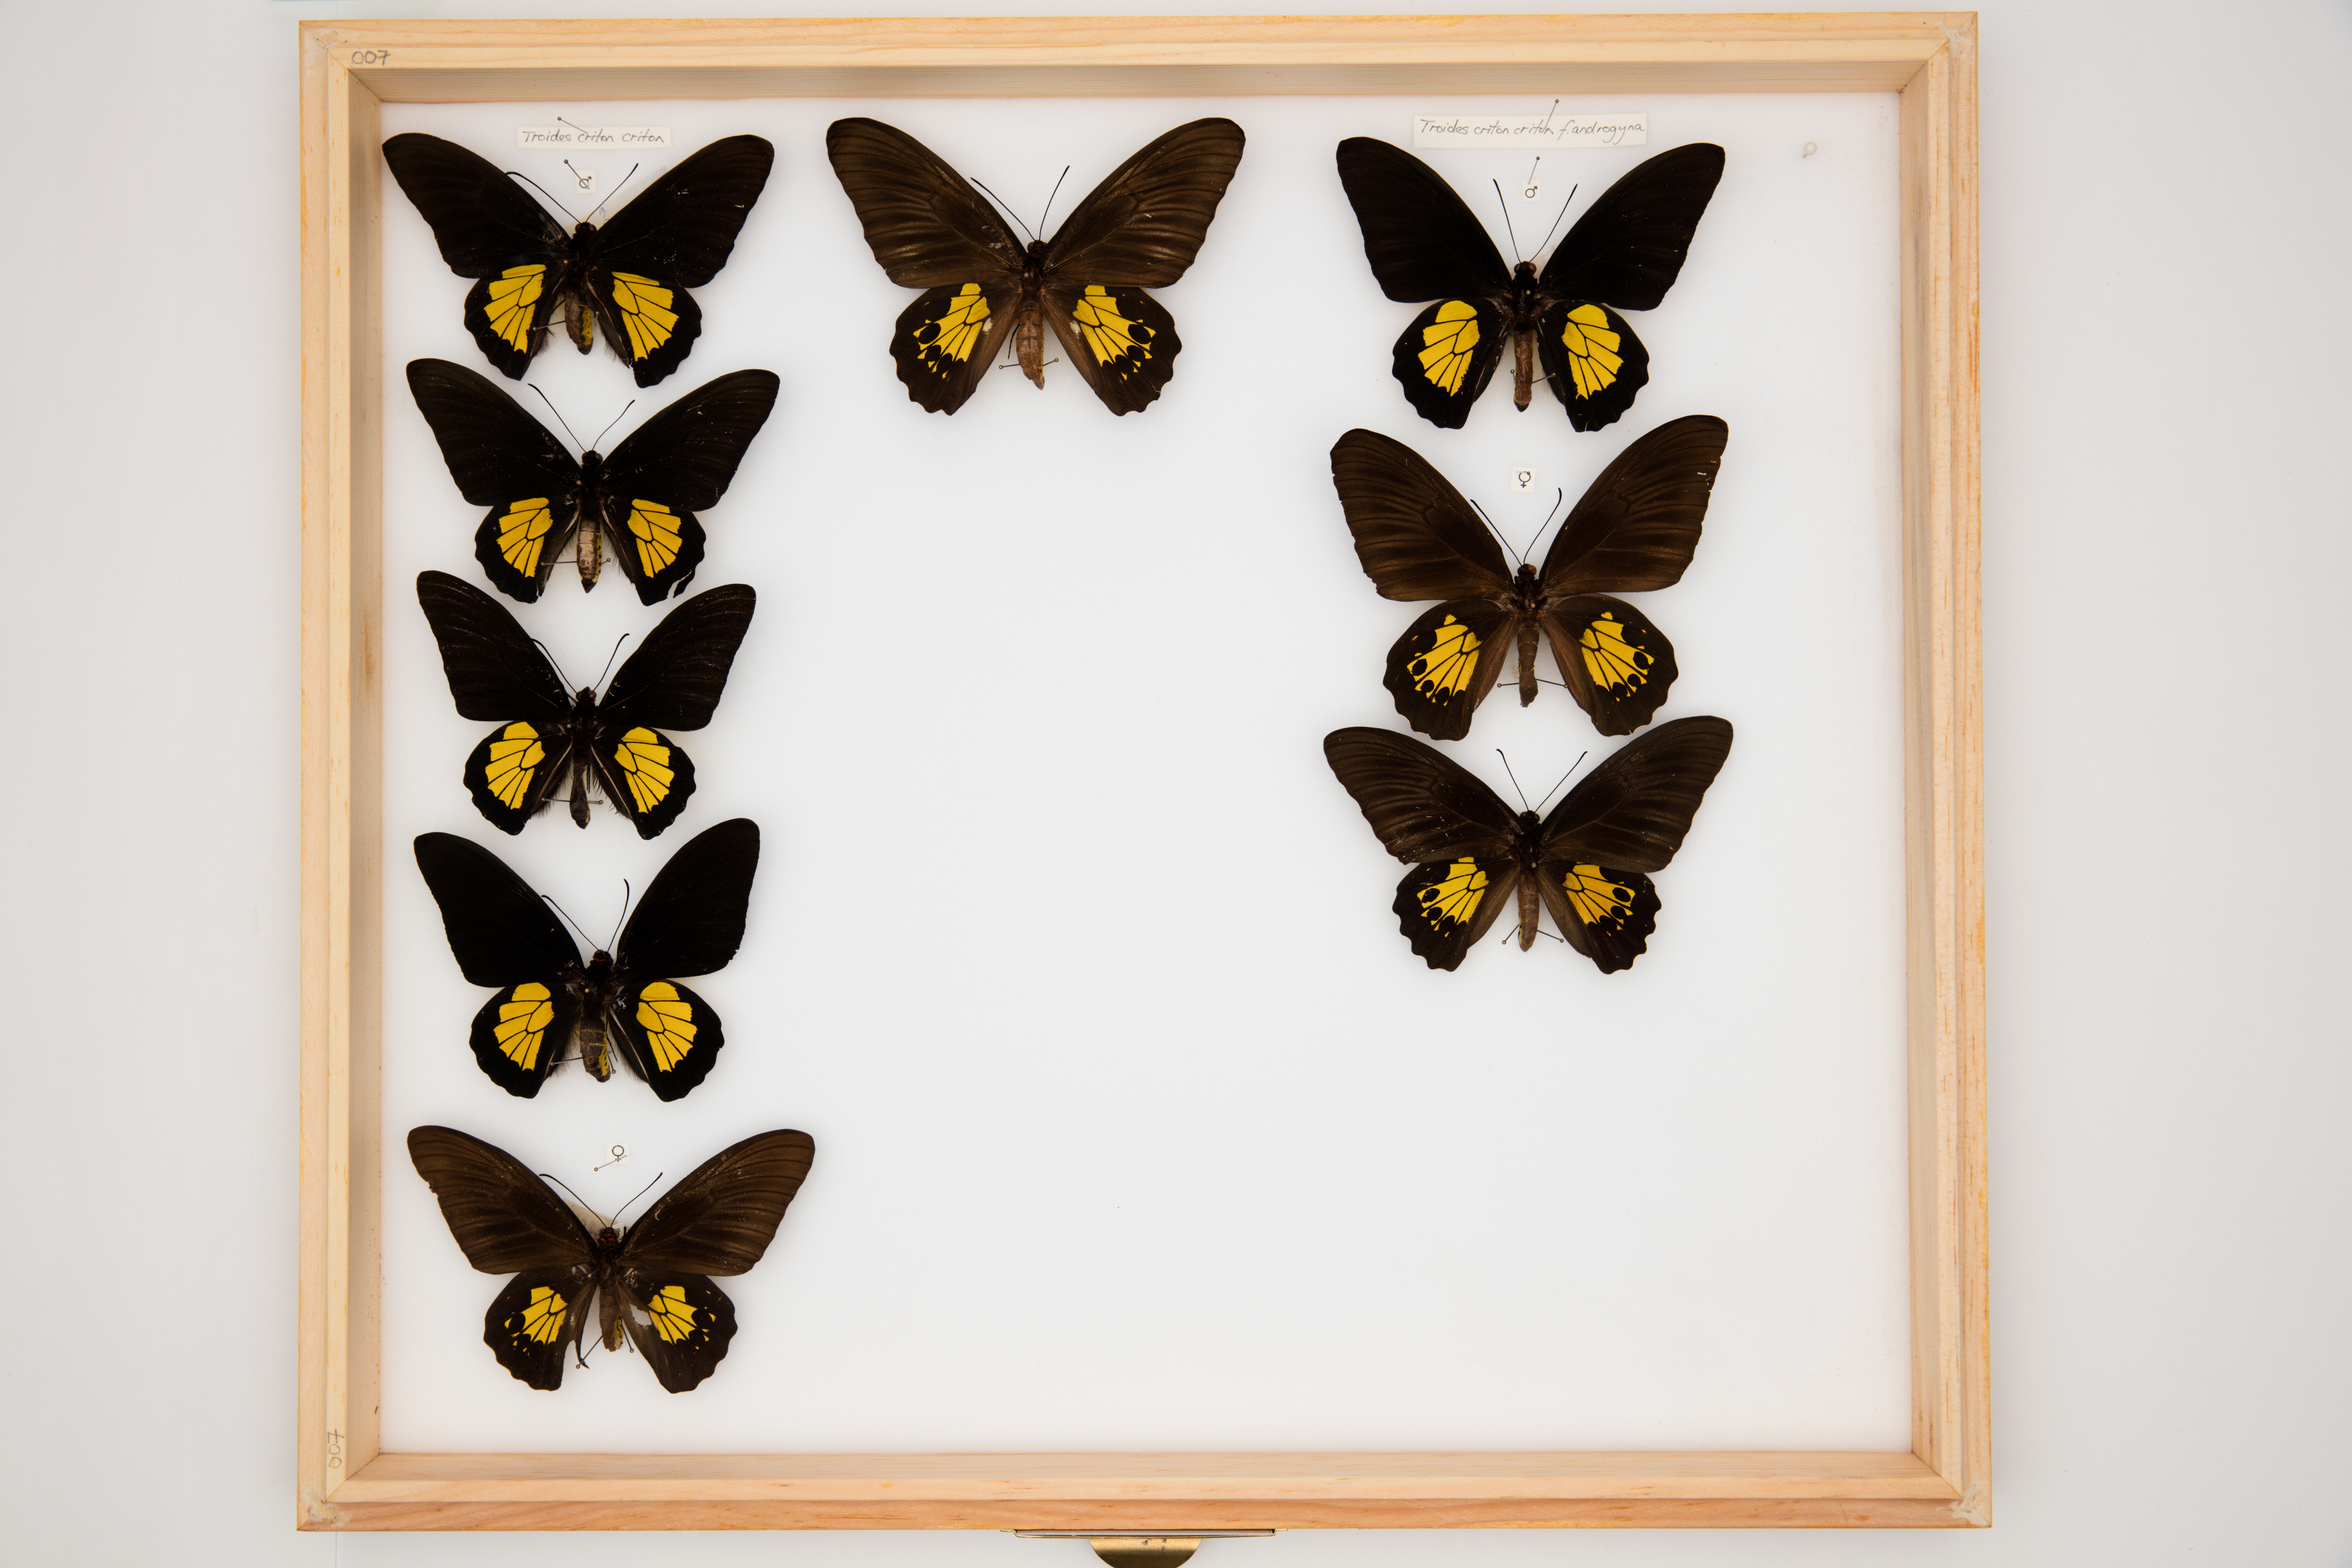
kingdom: Animalia
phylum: Arthropoda
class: Insecta
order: Lepidoptera
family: Papilionidae
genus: Troides
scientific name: Troides criton
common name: Criton birdwing
